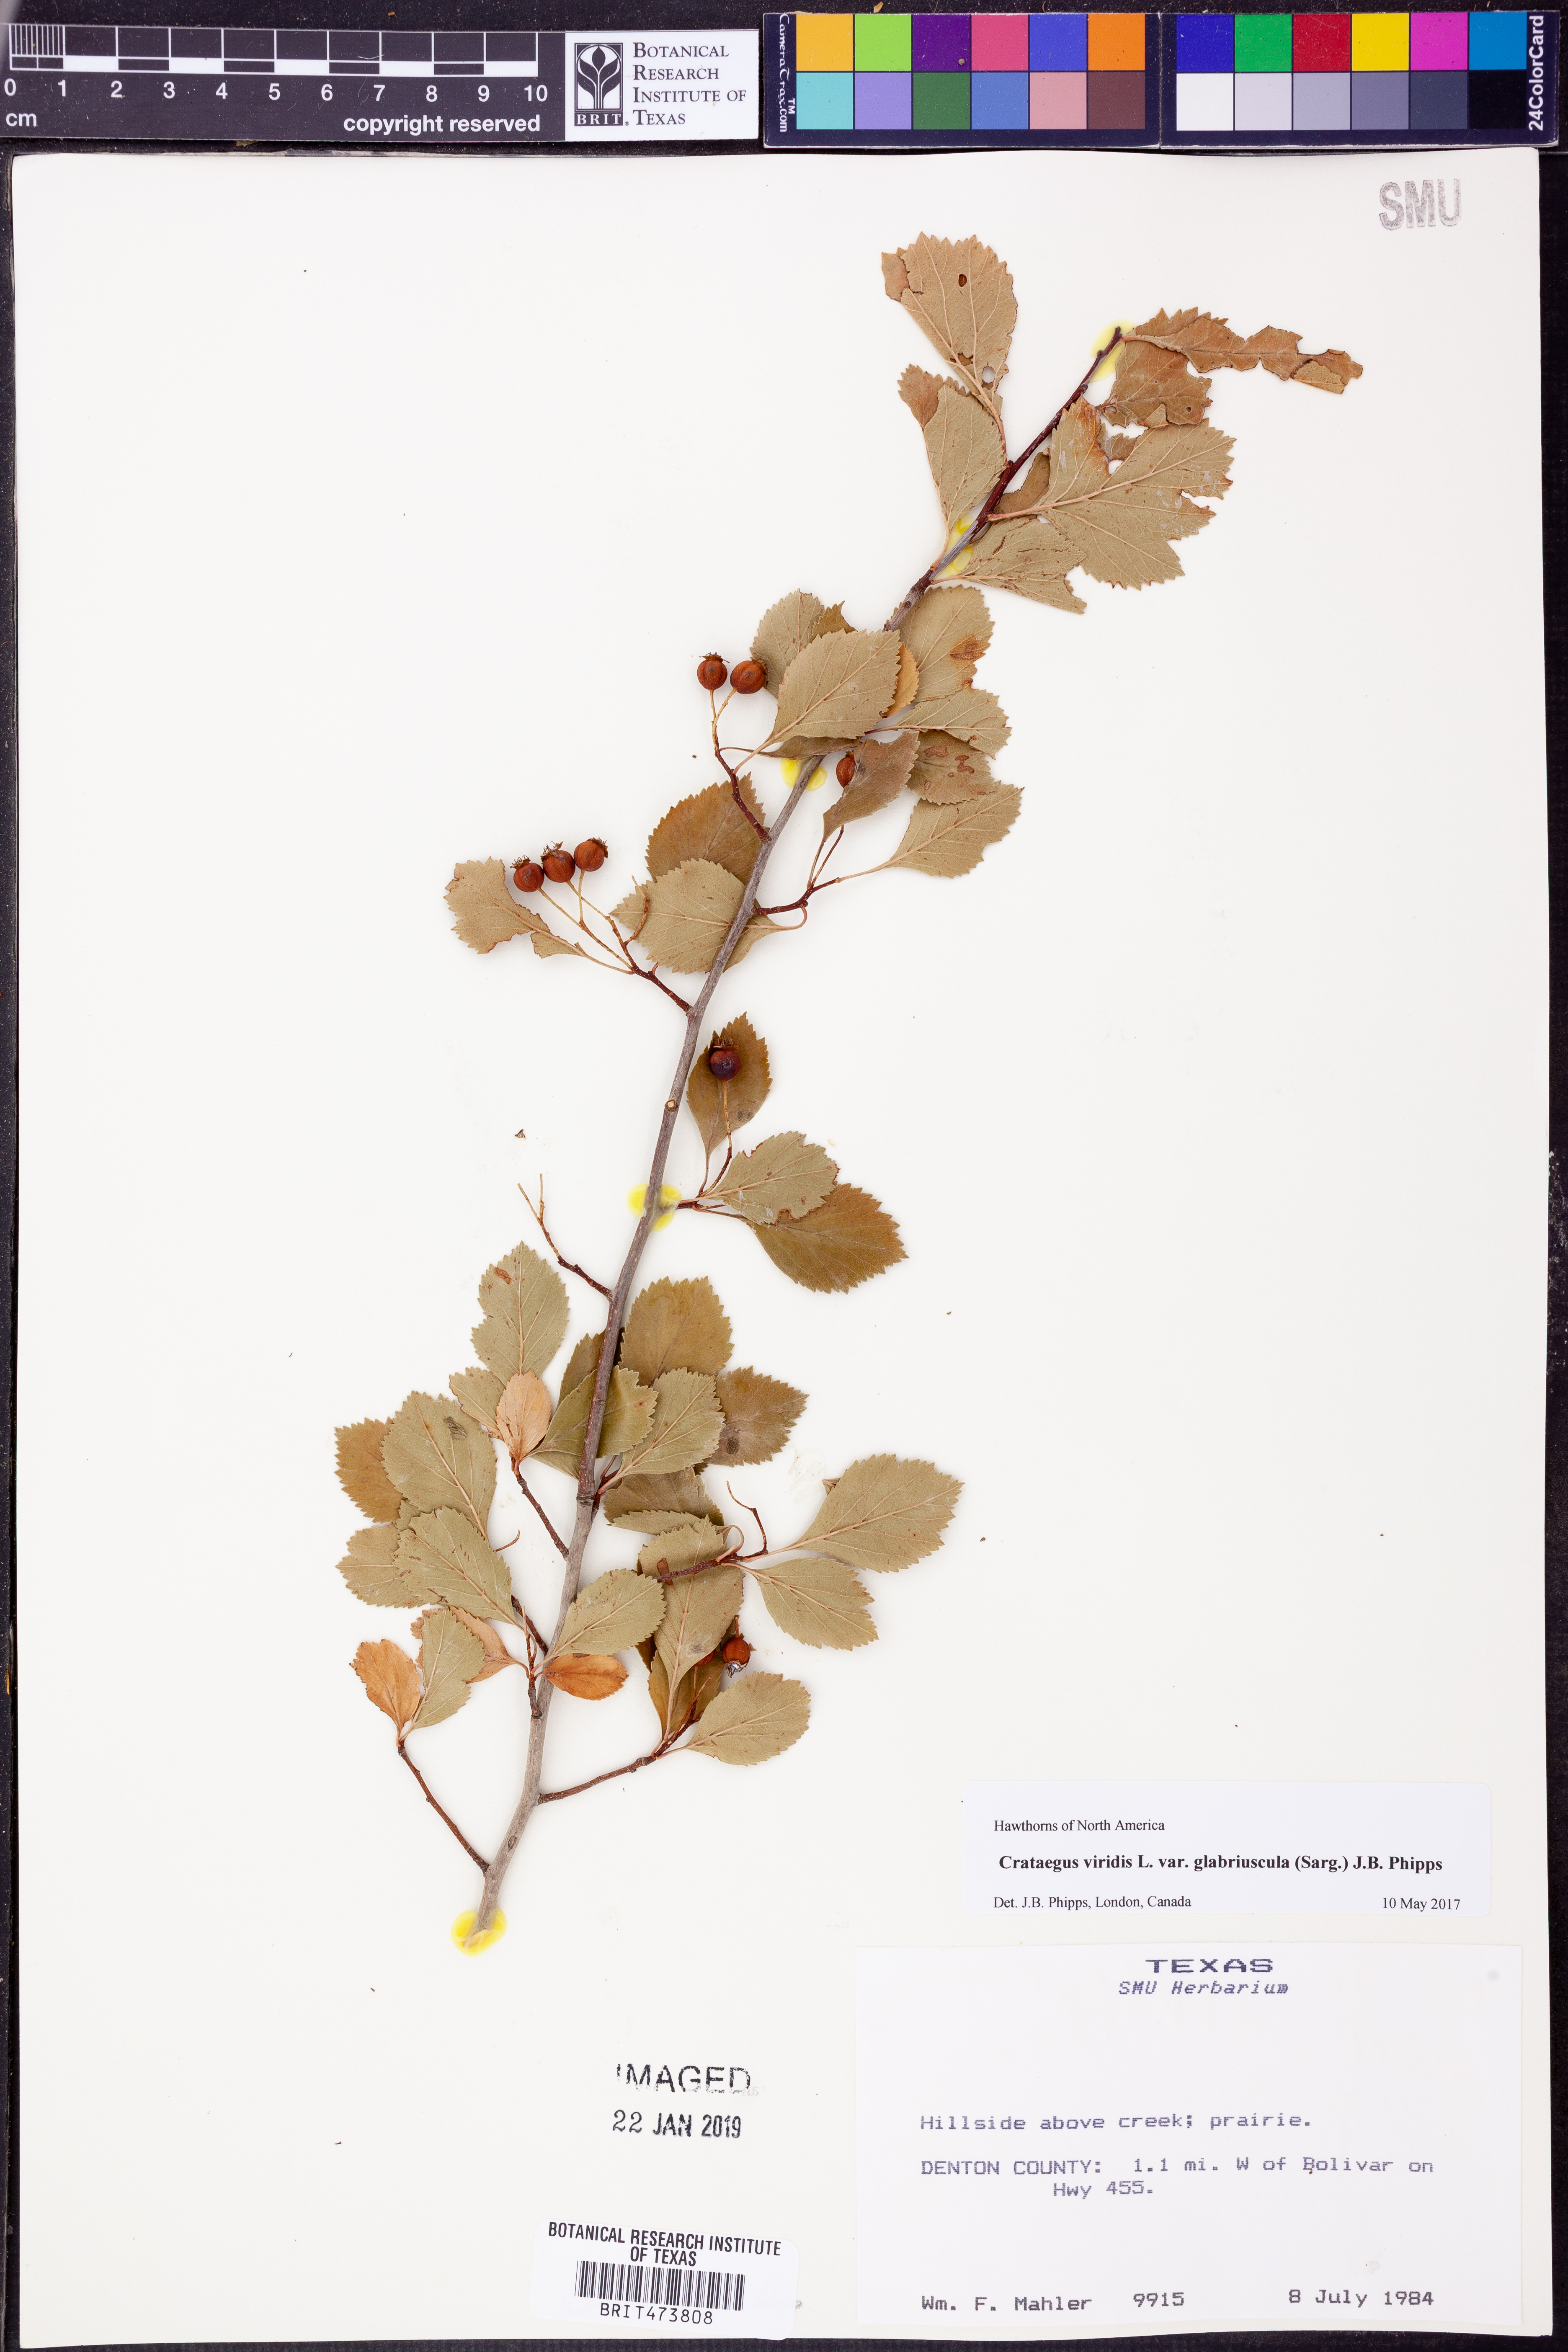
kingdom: Plantae
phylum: Tracheophyta
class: Magnoliopsida
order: Rosales
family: Rosaceae
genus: Crataegus
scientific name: Crataegus viridis
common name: Southernthorn
